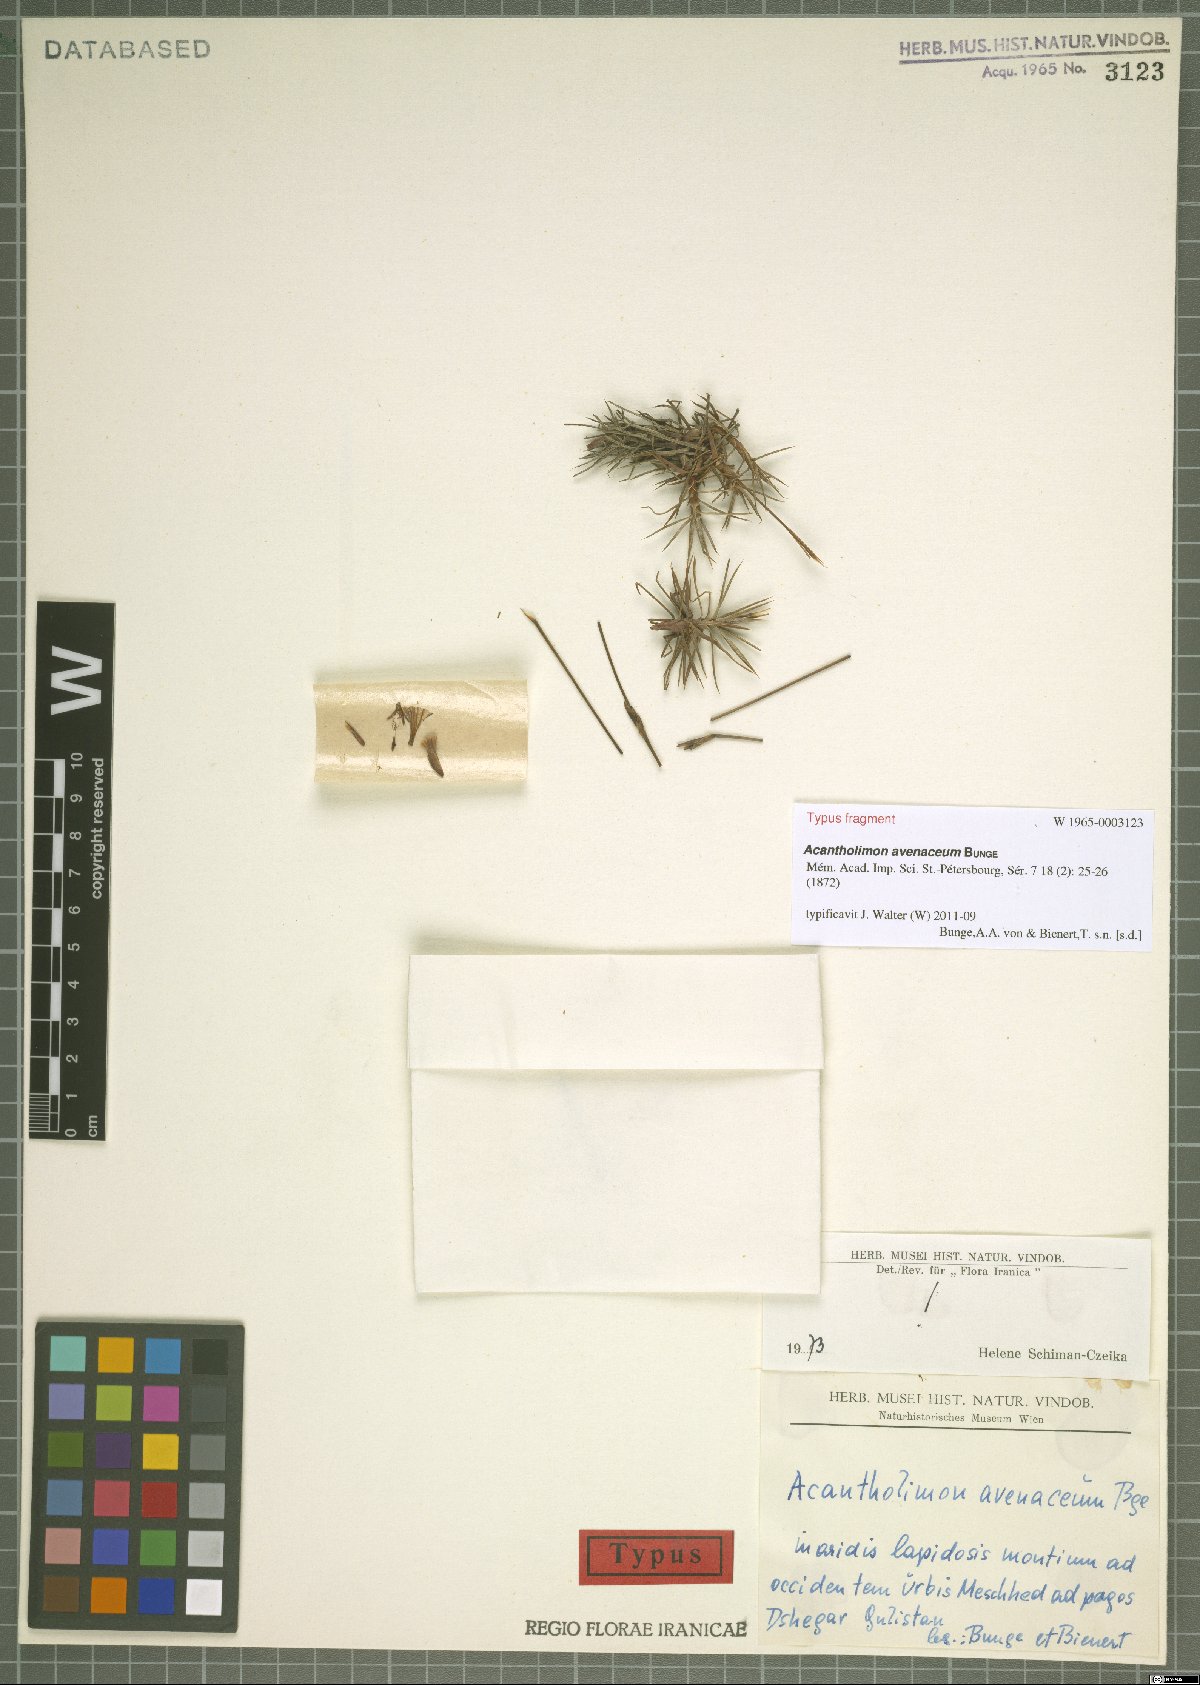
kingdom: Plantae
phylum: Tracheophyta
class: Magnoliopsida
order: Caryophyllales
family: Plumbaginaceae
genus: Acantholimon
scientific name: Acantholimon avenaceum
